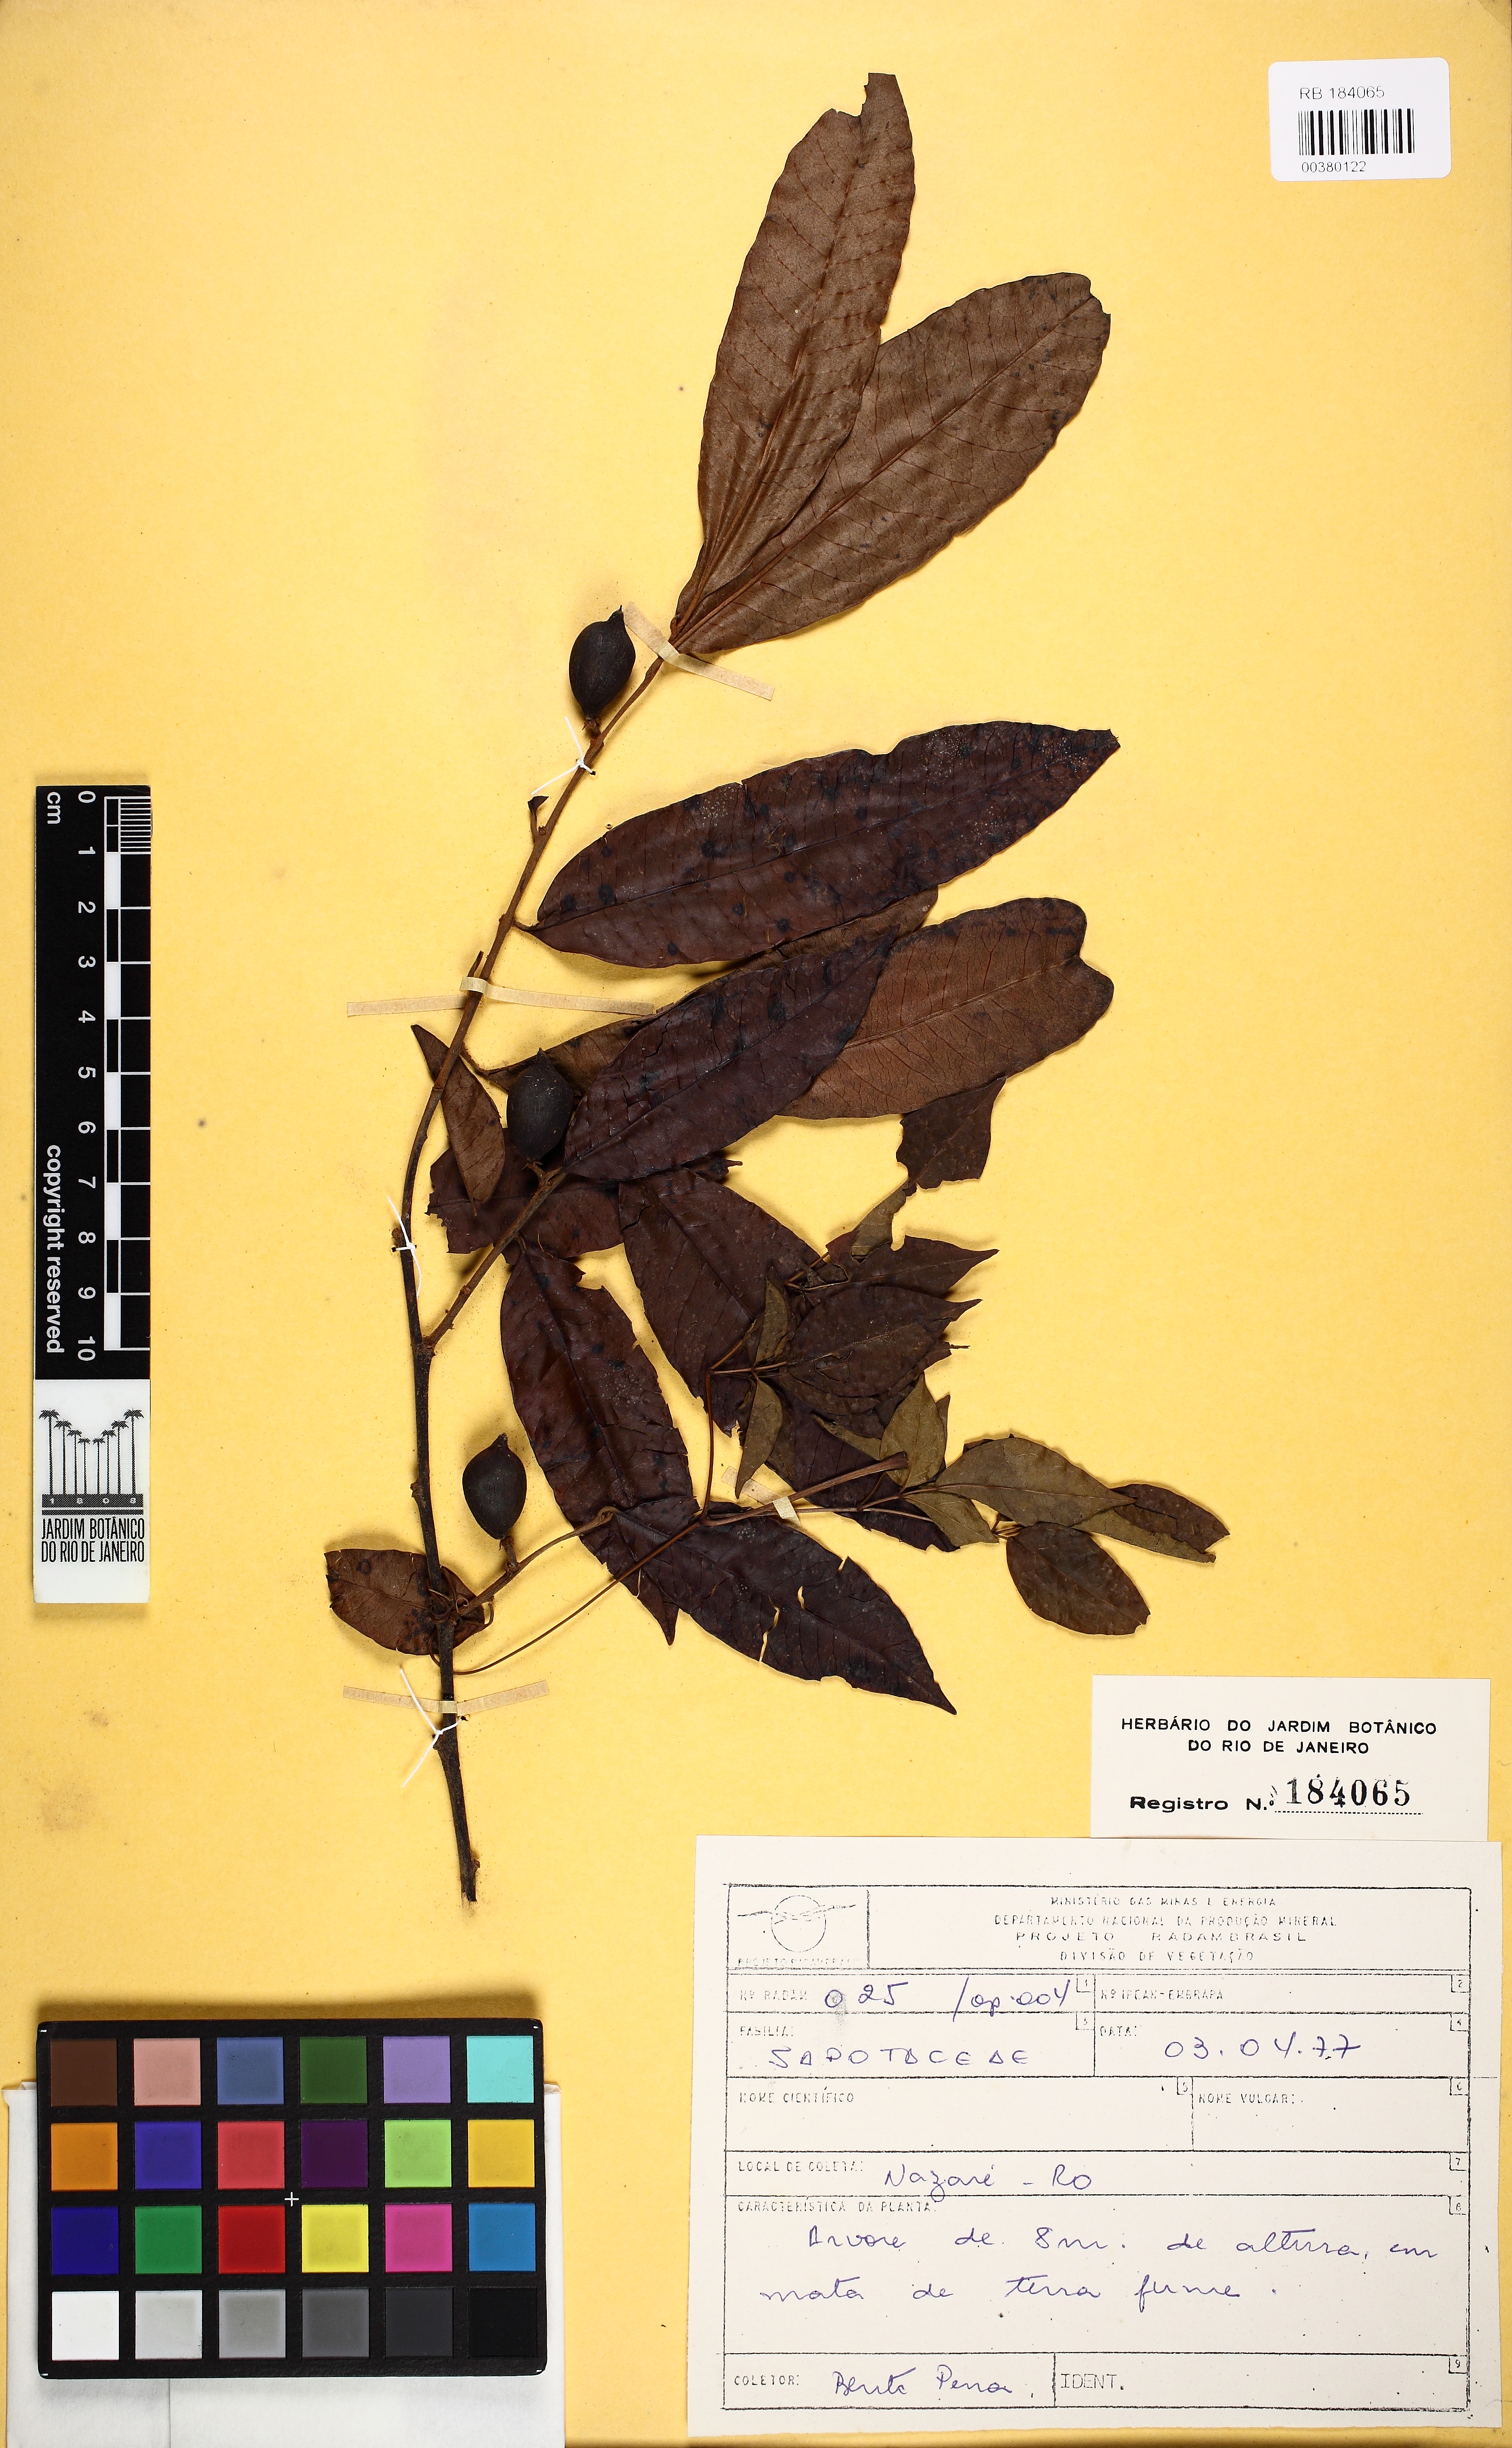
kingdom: Plantae
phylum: Tracheophyta
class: Magnoliopsida
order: Ericales
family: Sapotaceae
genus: Chrysophyllum
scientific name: Chrysophyllum sparsiflorum
